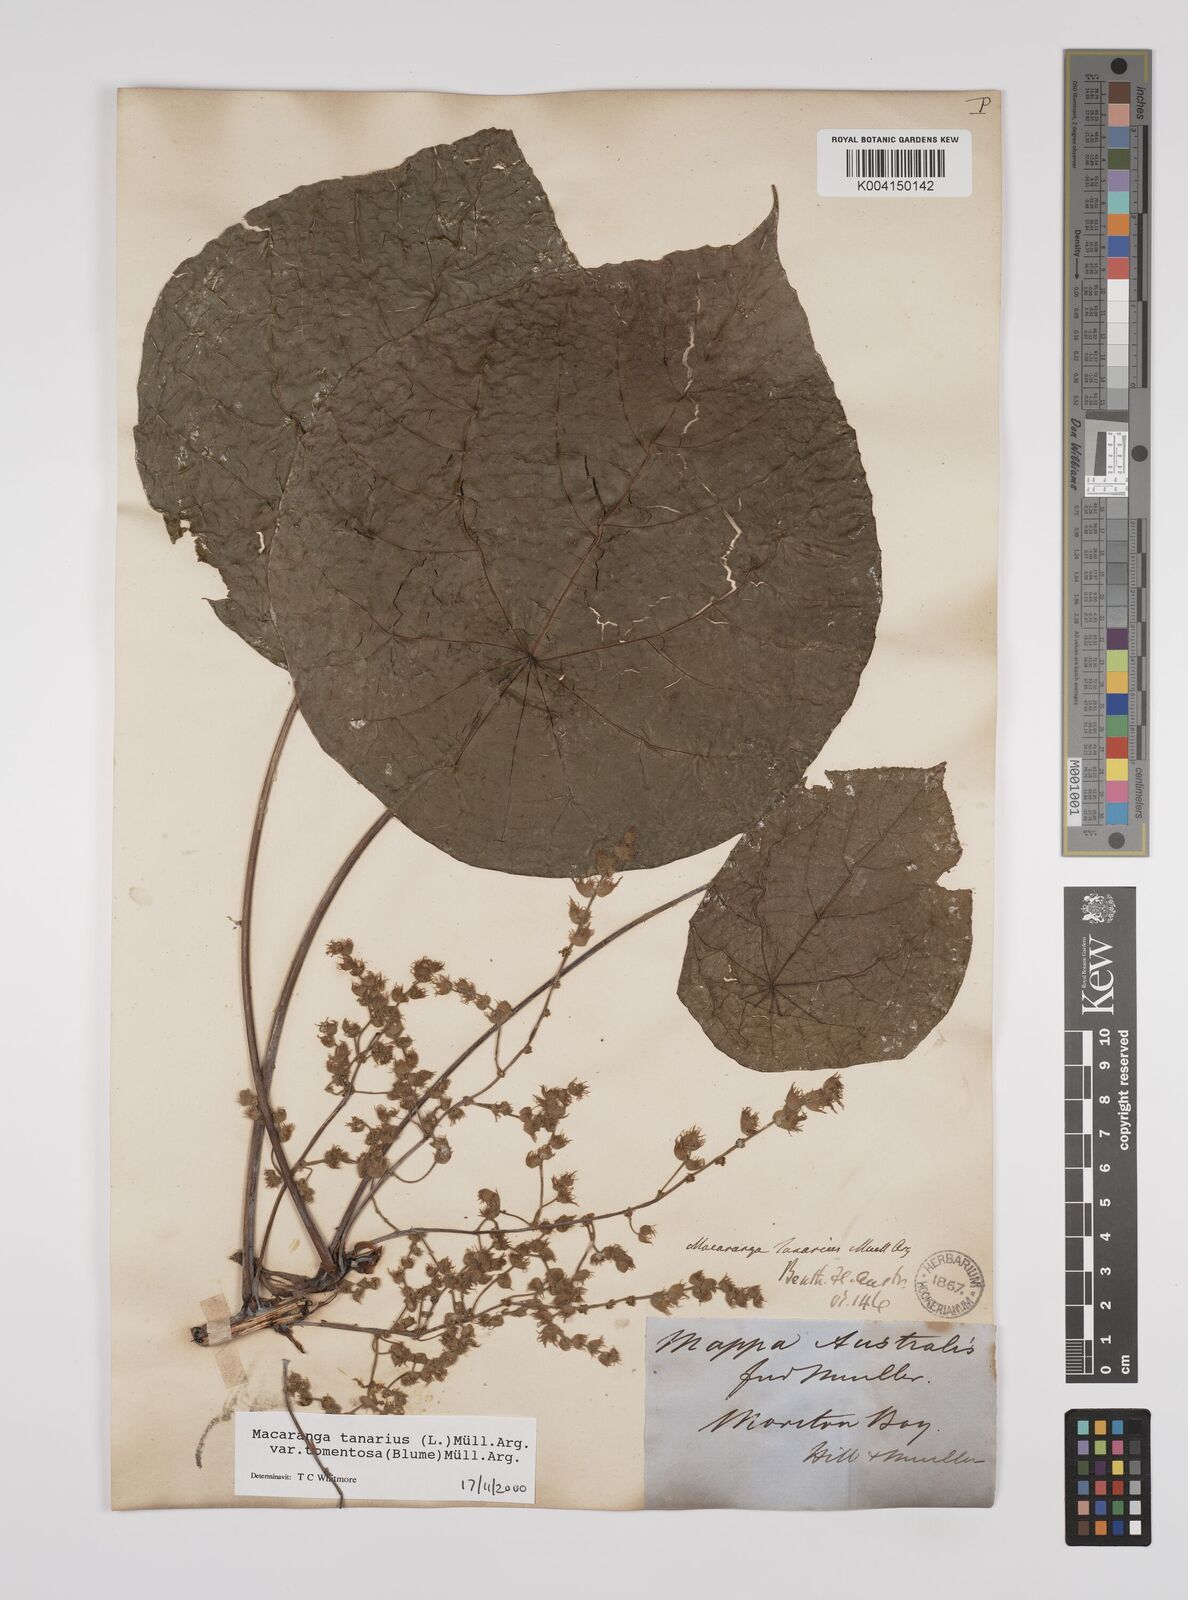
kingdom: Plantae
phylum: Tracheophyta
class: Magnoliopsida
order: Malpighiales
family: Euphorbiaceae
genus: Macaranga
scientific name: Macaranga tanarius
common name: Parasol leaf tree
